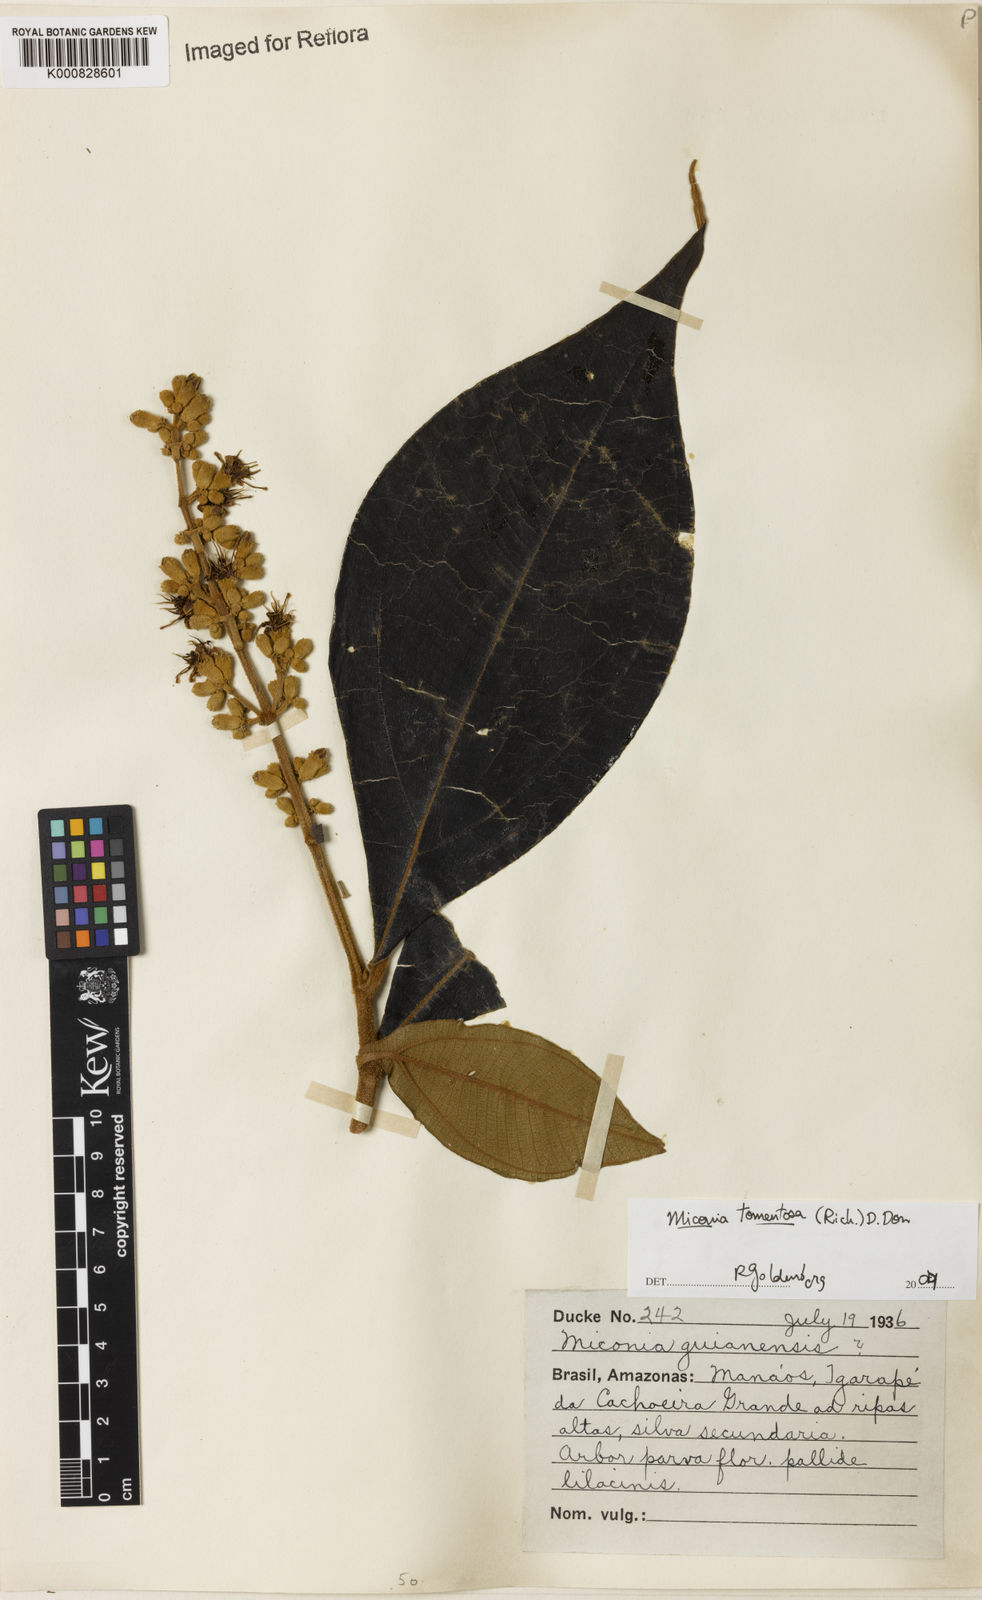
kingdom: Plantae
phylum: Tracheophyta
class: Magnoliopsida
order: Myrtales
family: Melastomataceae
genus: Miconia
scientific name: Miconia tomentosa
